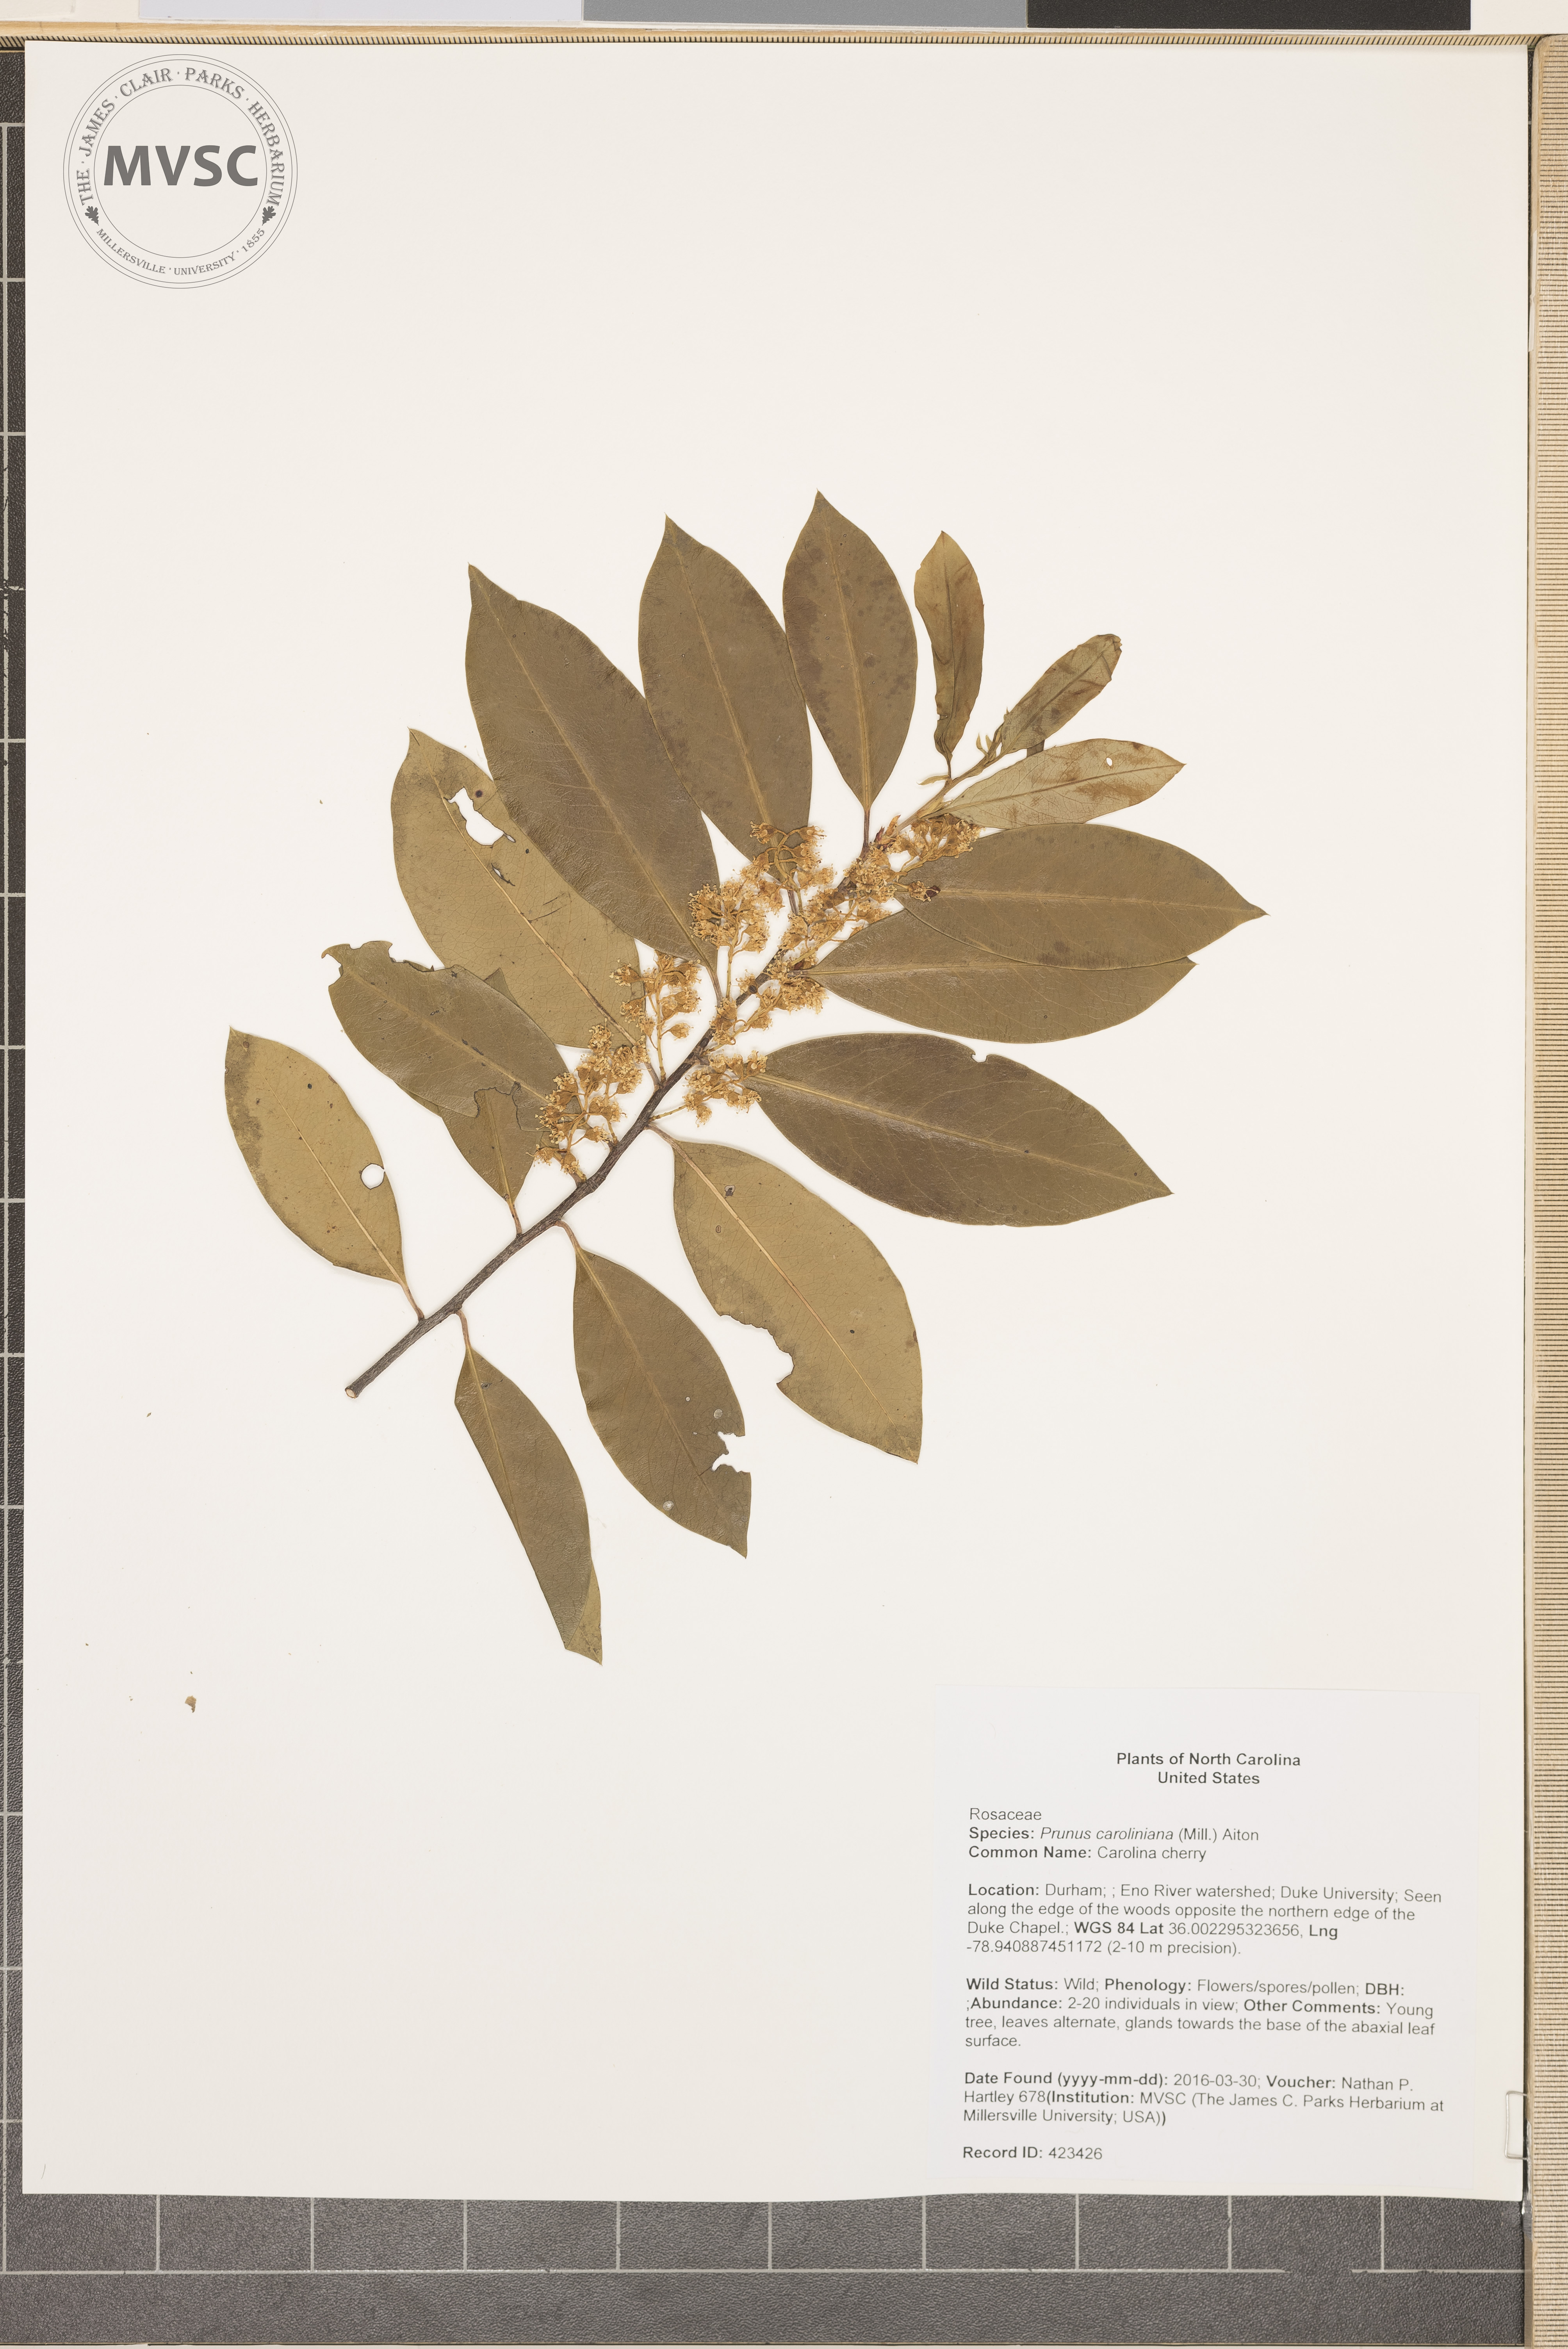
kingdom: Plantae
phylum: Tracheophyta
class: Magnoliopsida
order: Rosales
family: Rosaceae
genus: Prunus
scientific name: Prunus caroliniana
